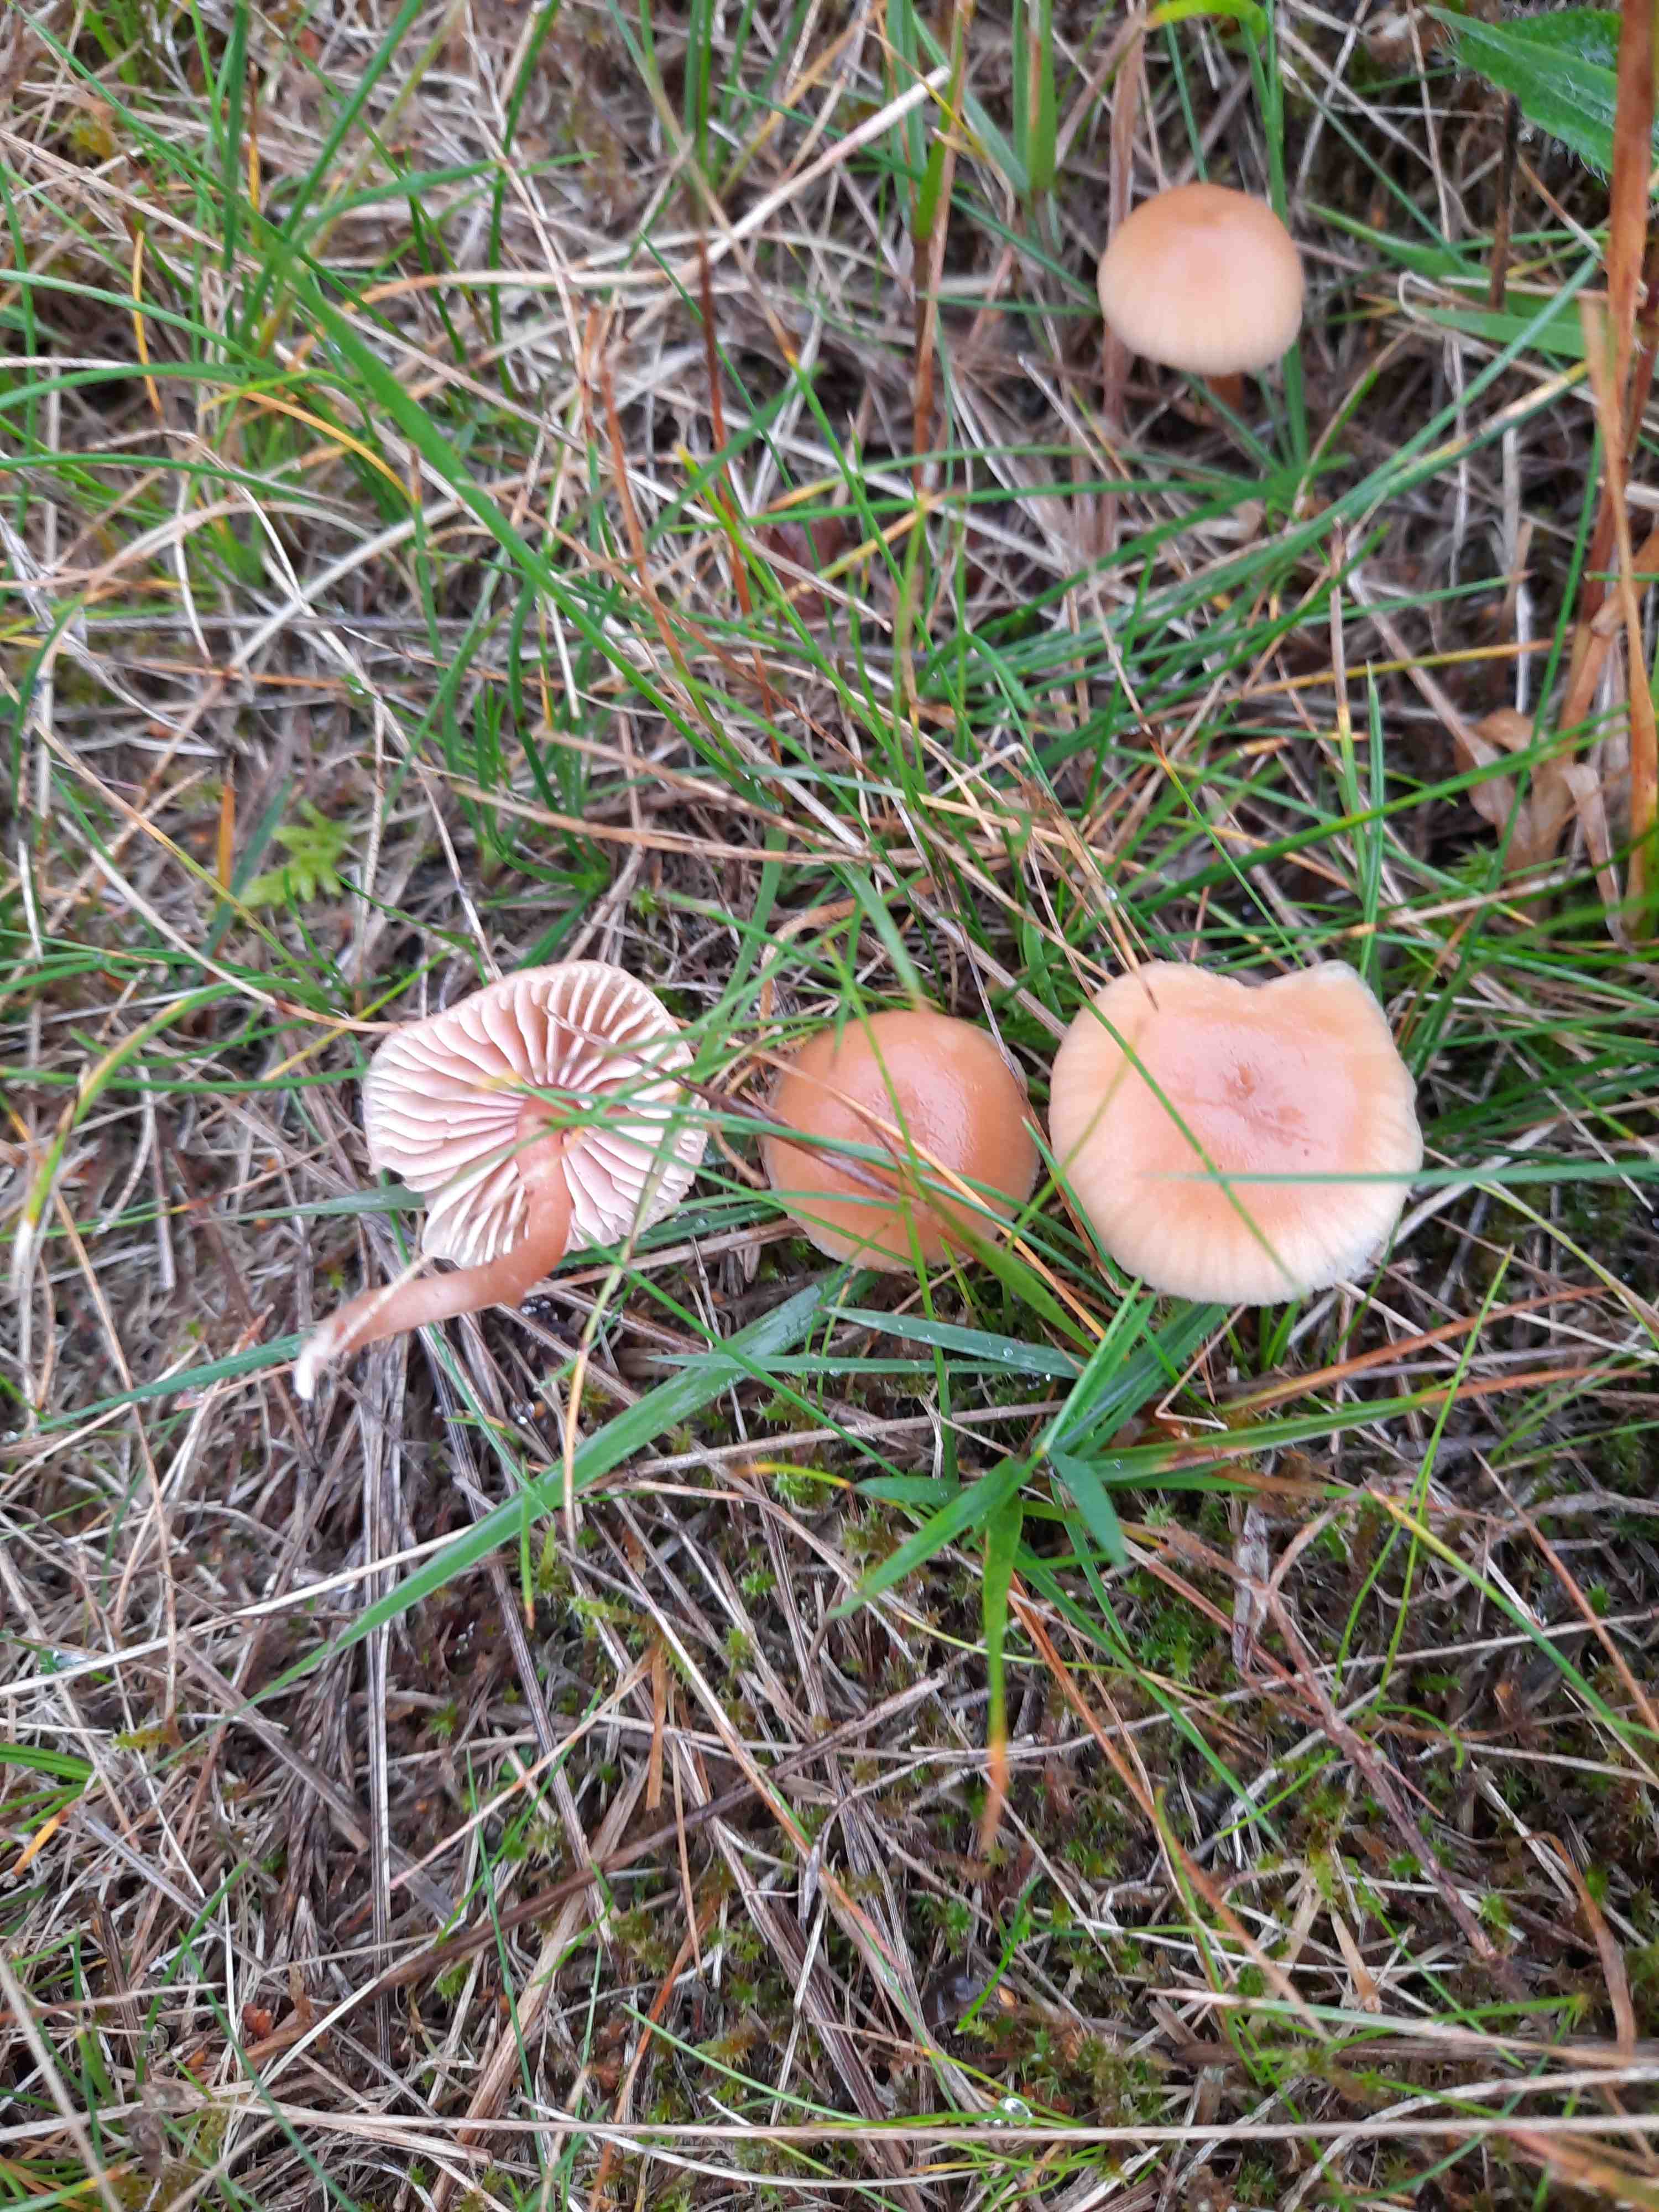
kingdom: Fungi
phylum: Basidiomycota
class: Agaricomycetes
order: Agaricales
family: Hydnangiaceae
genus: Laccaria
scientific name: Laccaria laccata
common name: rød ametysthat
